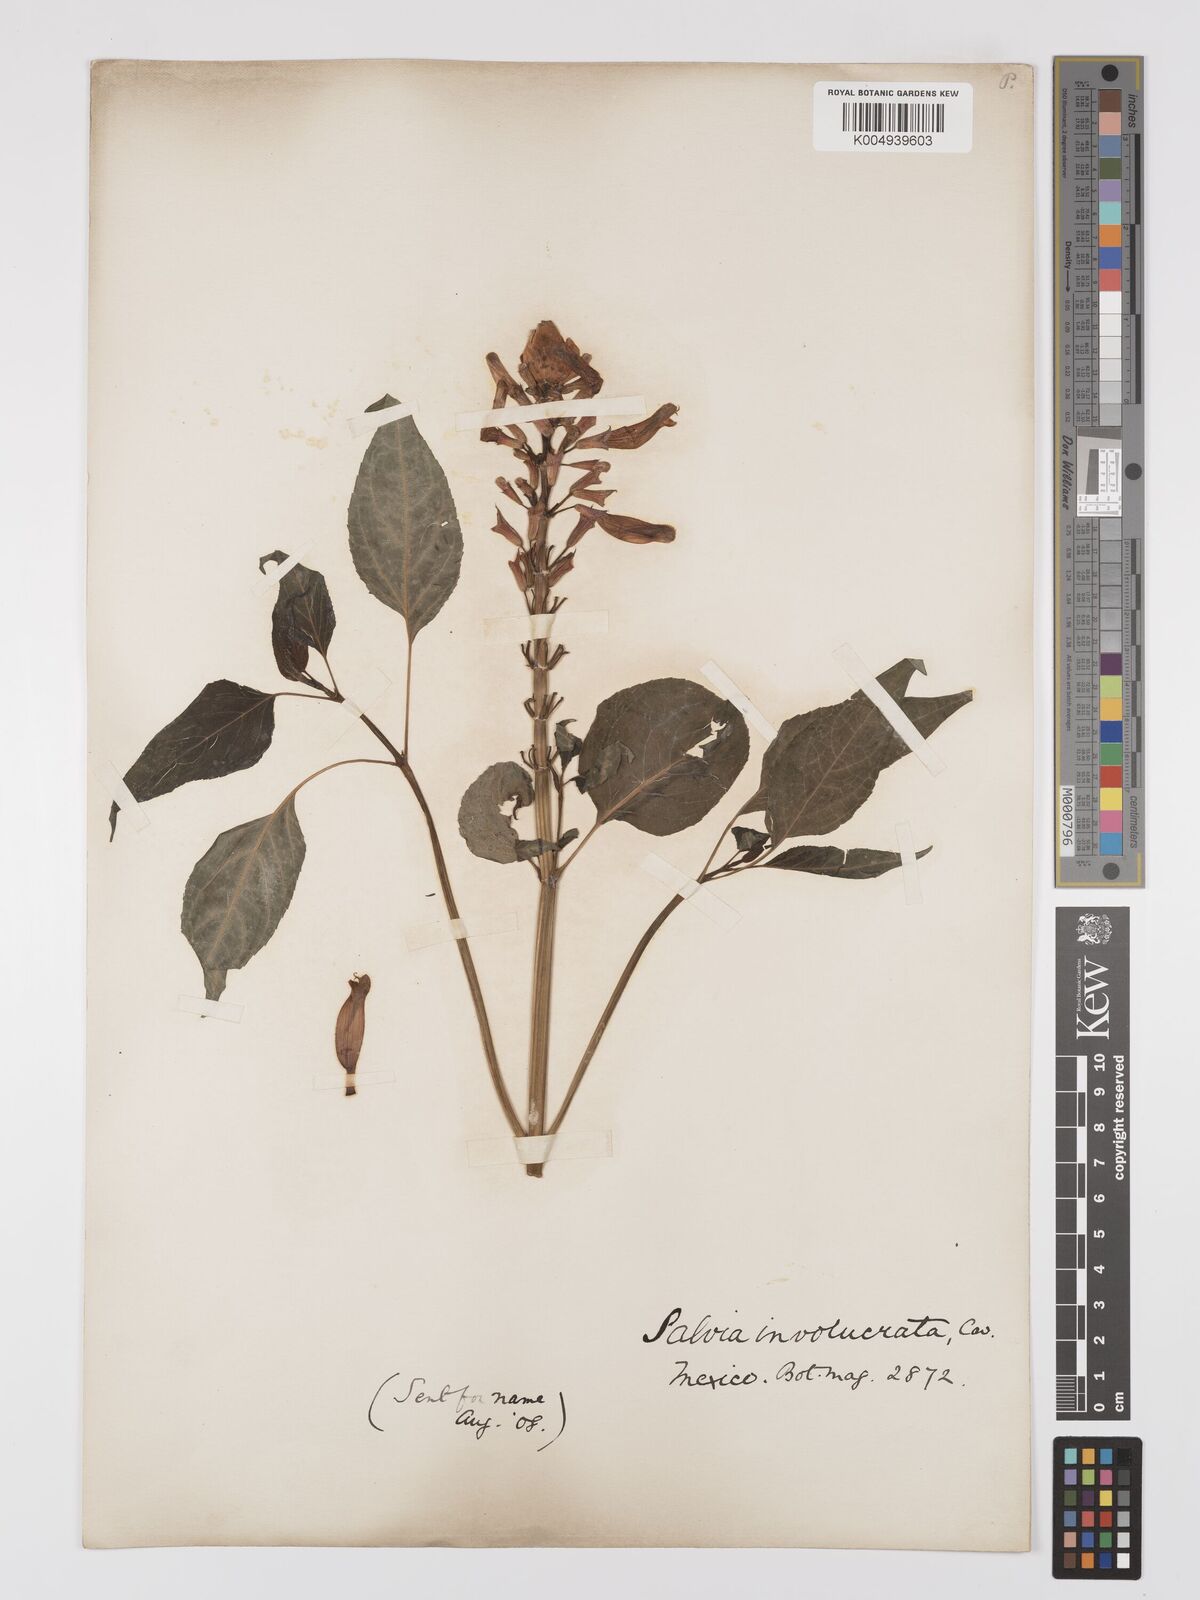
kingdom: Plantae
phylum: Tracheophyta
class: Magnoliopsida
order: Lamiales
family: Lamiaceae
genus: Salvia
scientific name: Salvia involucrata
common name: Roseleaf sage
